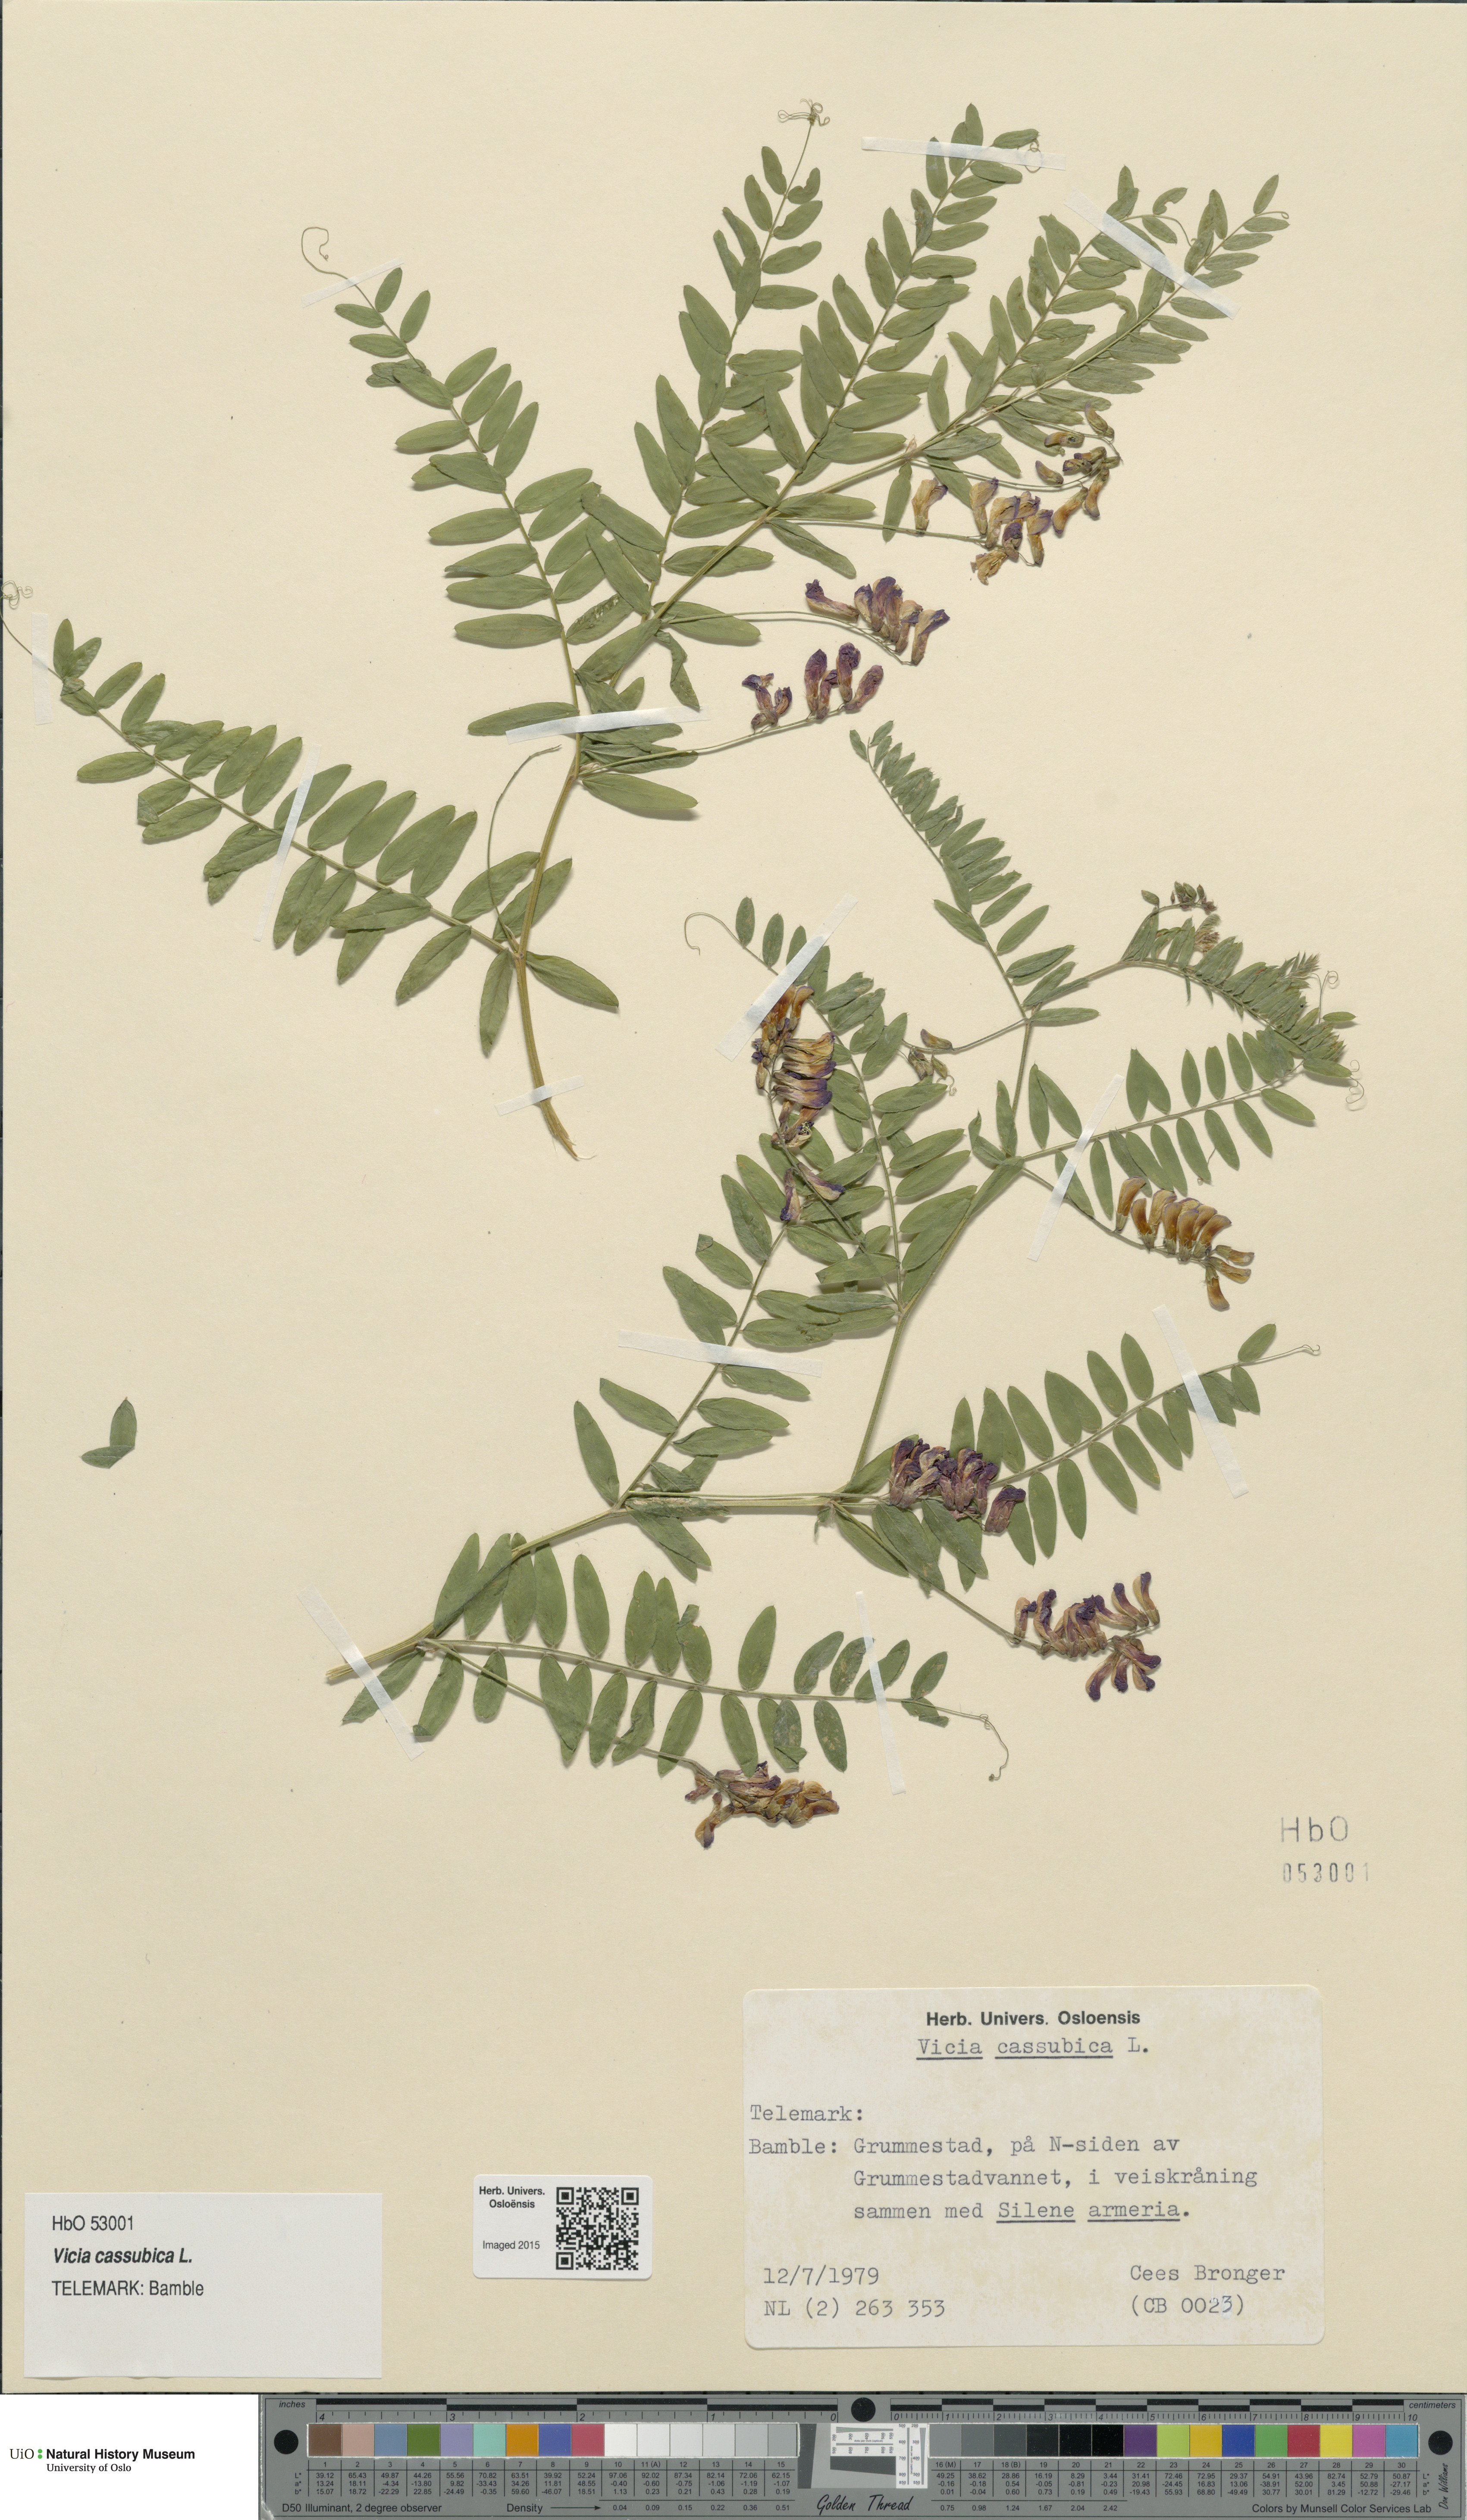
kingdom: Plantae
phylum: Tracheophyta
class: Magnoliopsida
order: Fabales
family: Fabaceae
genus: Vicia
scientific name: Vicia cassubica
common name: Danzig vetch
